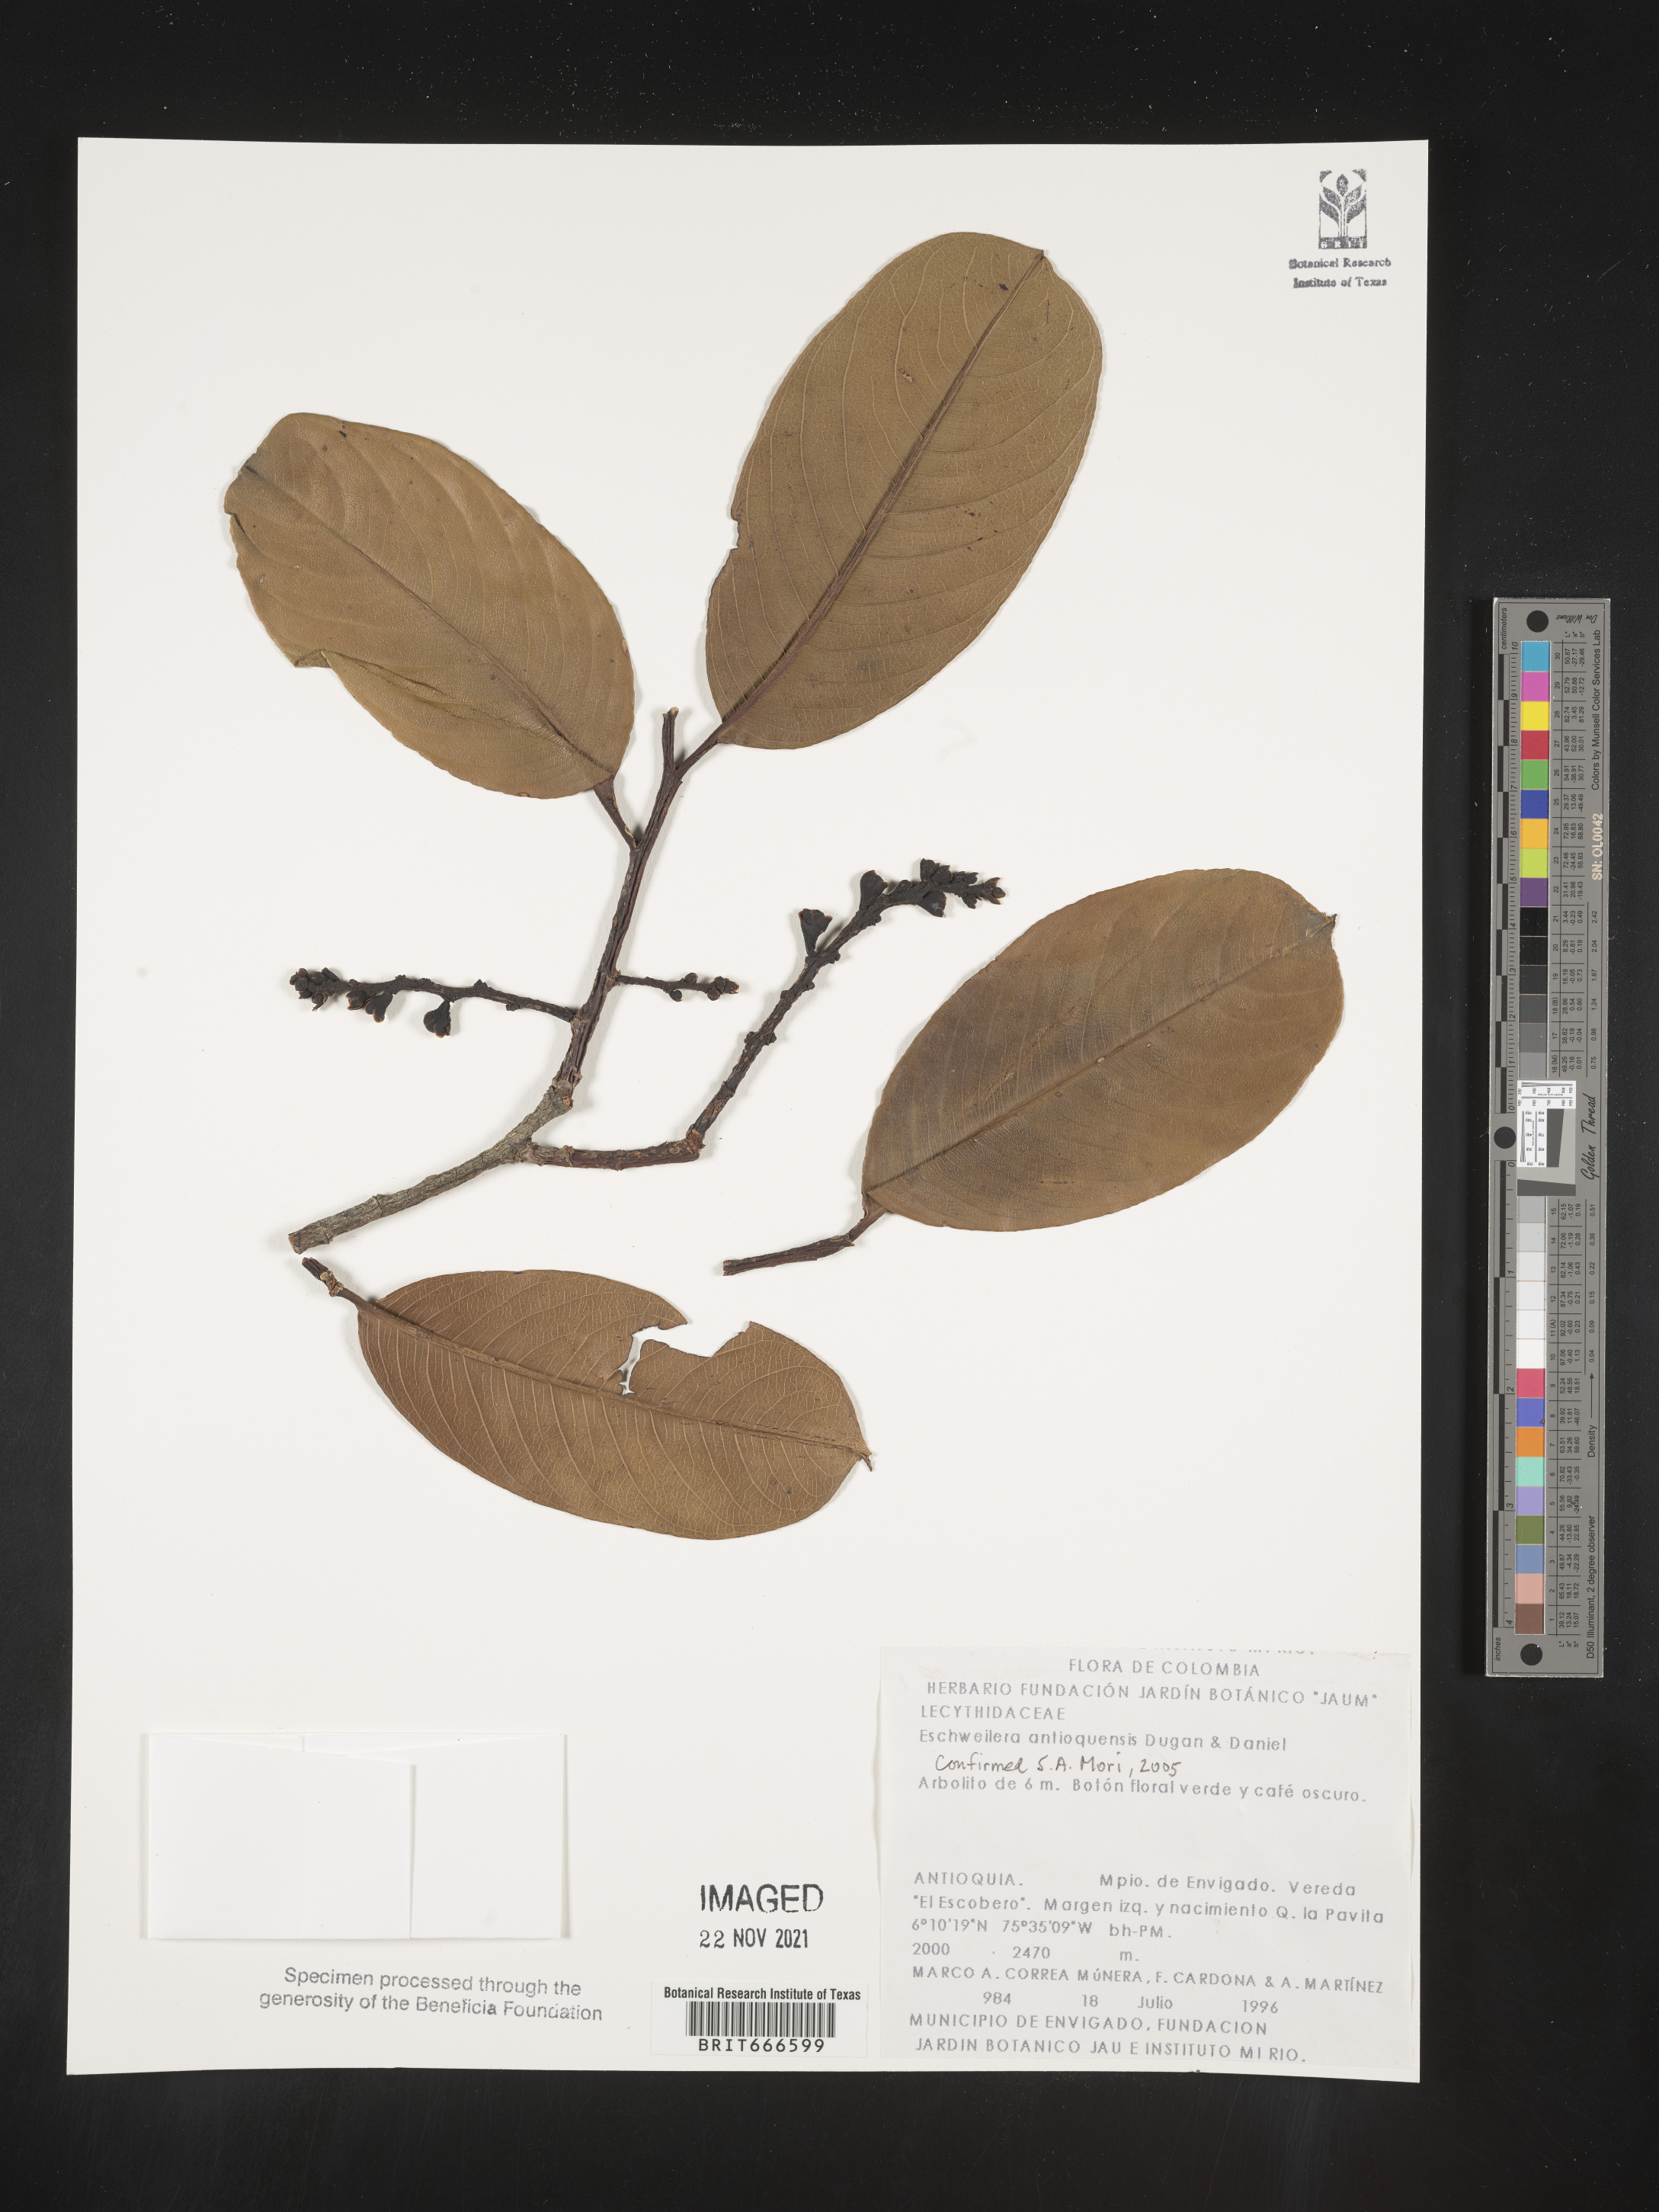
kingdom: Plantae
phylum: Tracheophyta
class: Magnoliopsida
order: Ericales
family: Lecythidaceae
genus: Eschweilera
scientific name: Eschweilera
